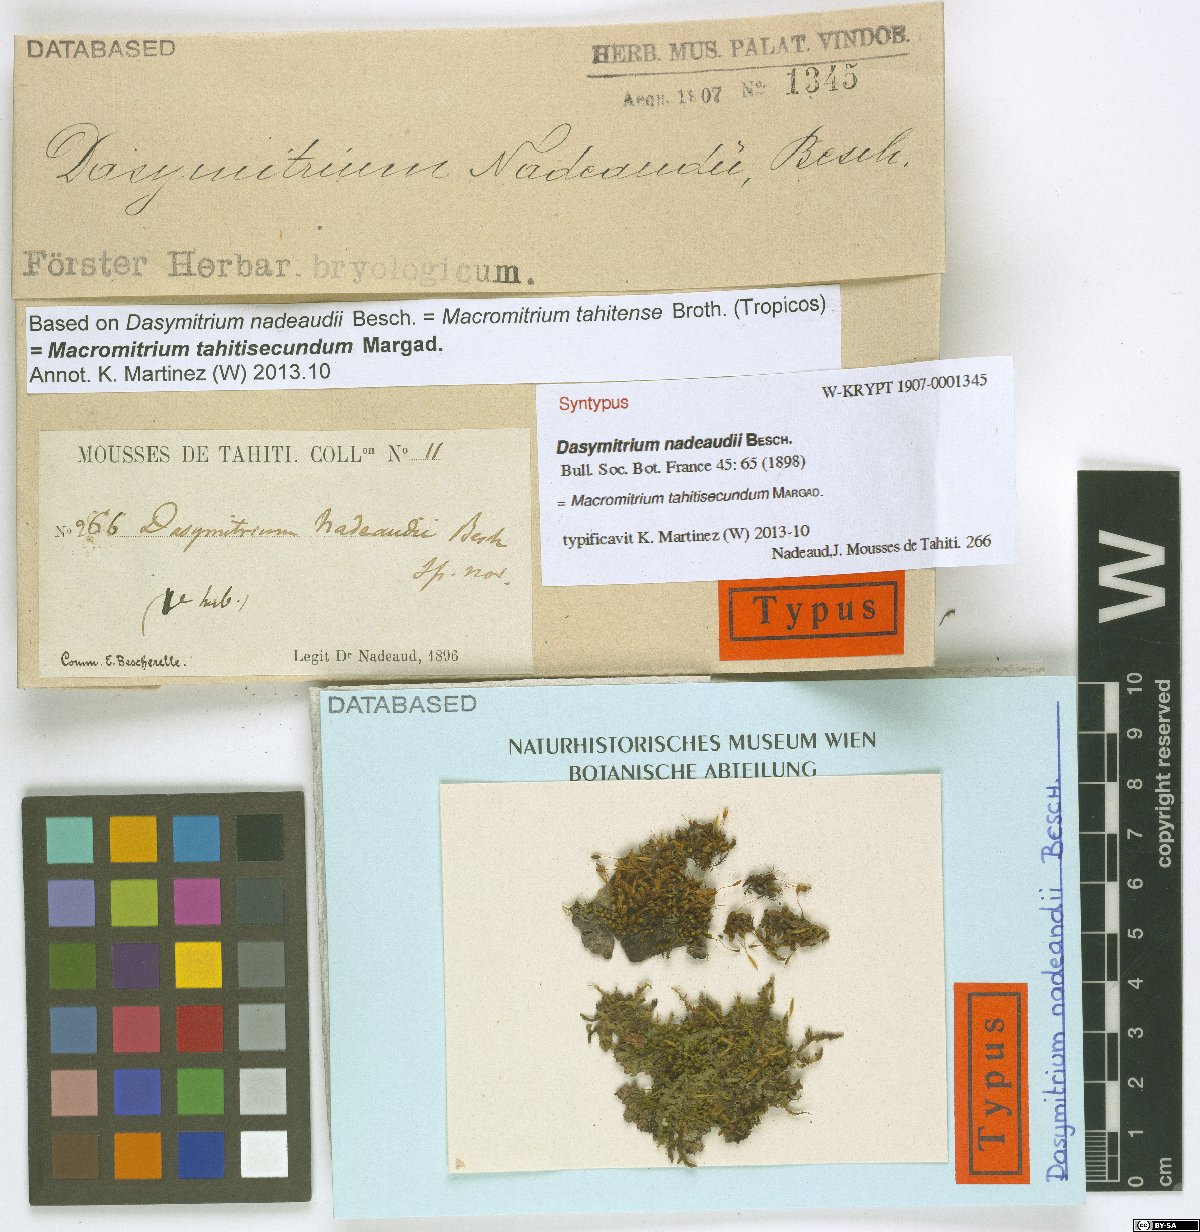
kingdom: Plantae
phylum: Bryophyta
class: Bryopsida
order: Orthotrichales
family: Orthotrichaceae
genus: Macromitrium
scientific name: Macromitrium tahitisecundum
